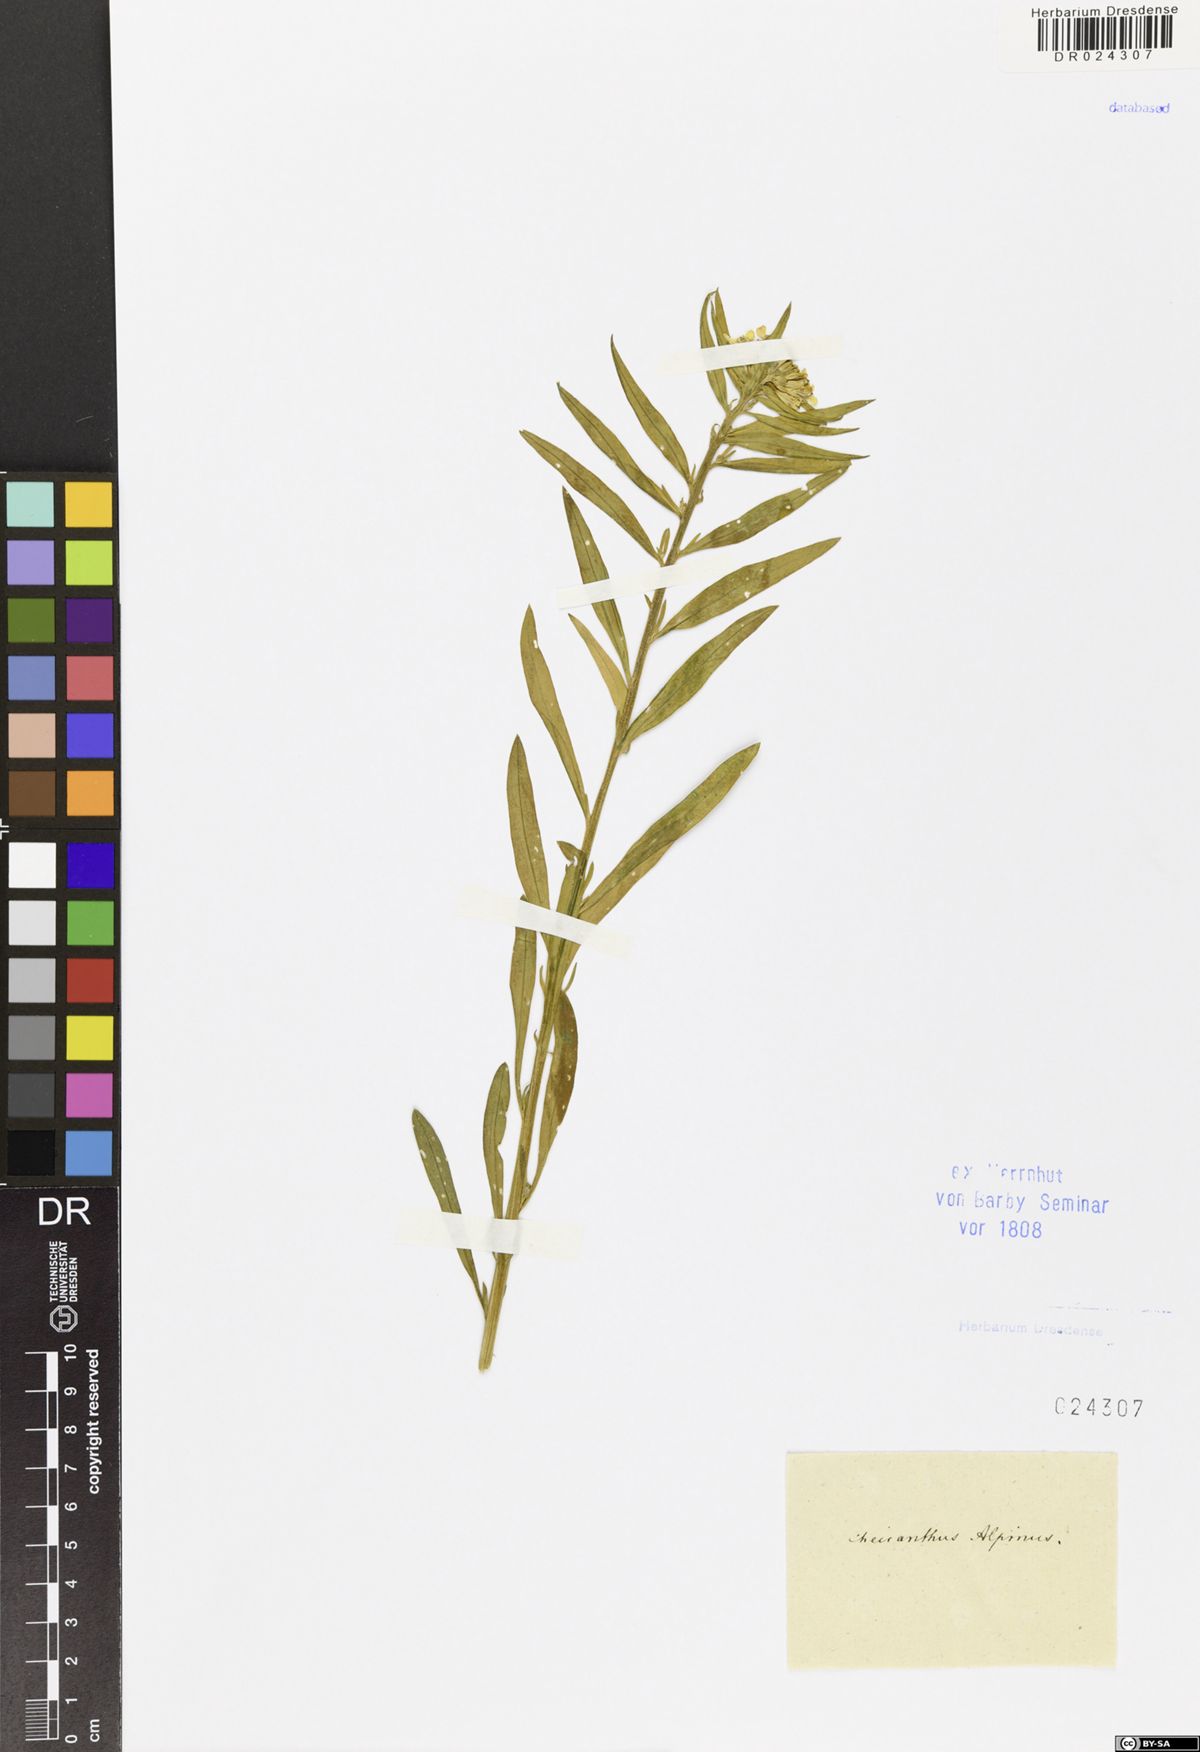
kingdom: Plantae
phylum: Tracheophyta
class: Magnoliopsida
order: Brassicales
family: Brassicaceae
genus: Erysimum
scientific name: Erysimum sylvestre
